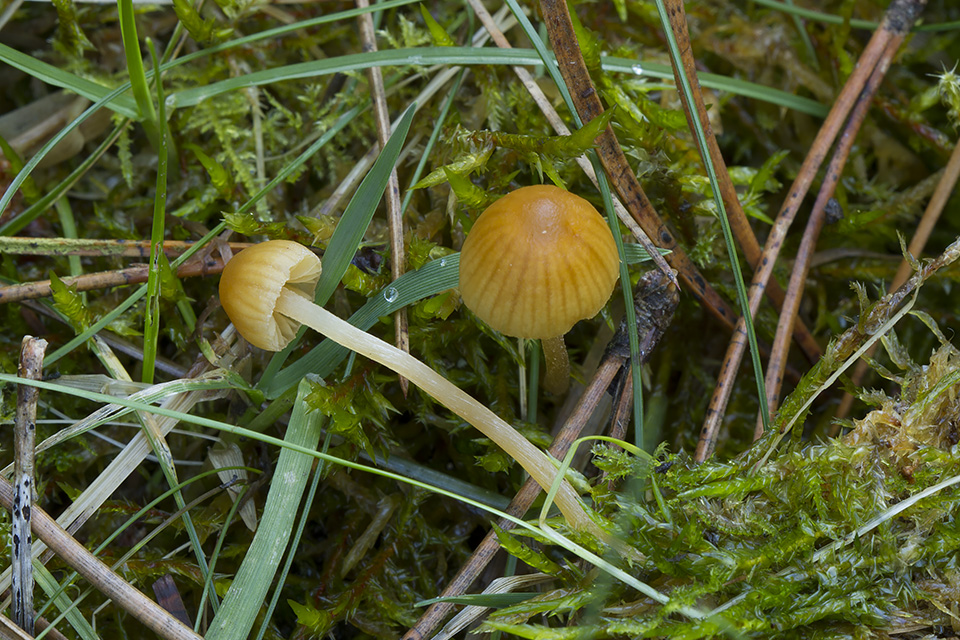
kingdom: Fungi
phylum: Basidiomycota
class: Agaricomycetes
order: Agaricales
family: Hymenogastraceae
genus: Galerina
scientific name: Galerina clavata
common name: kær-hjelmhat
